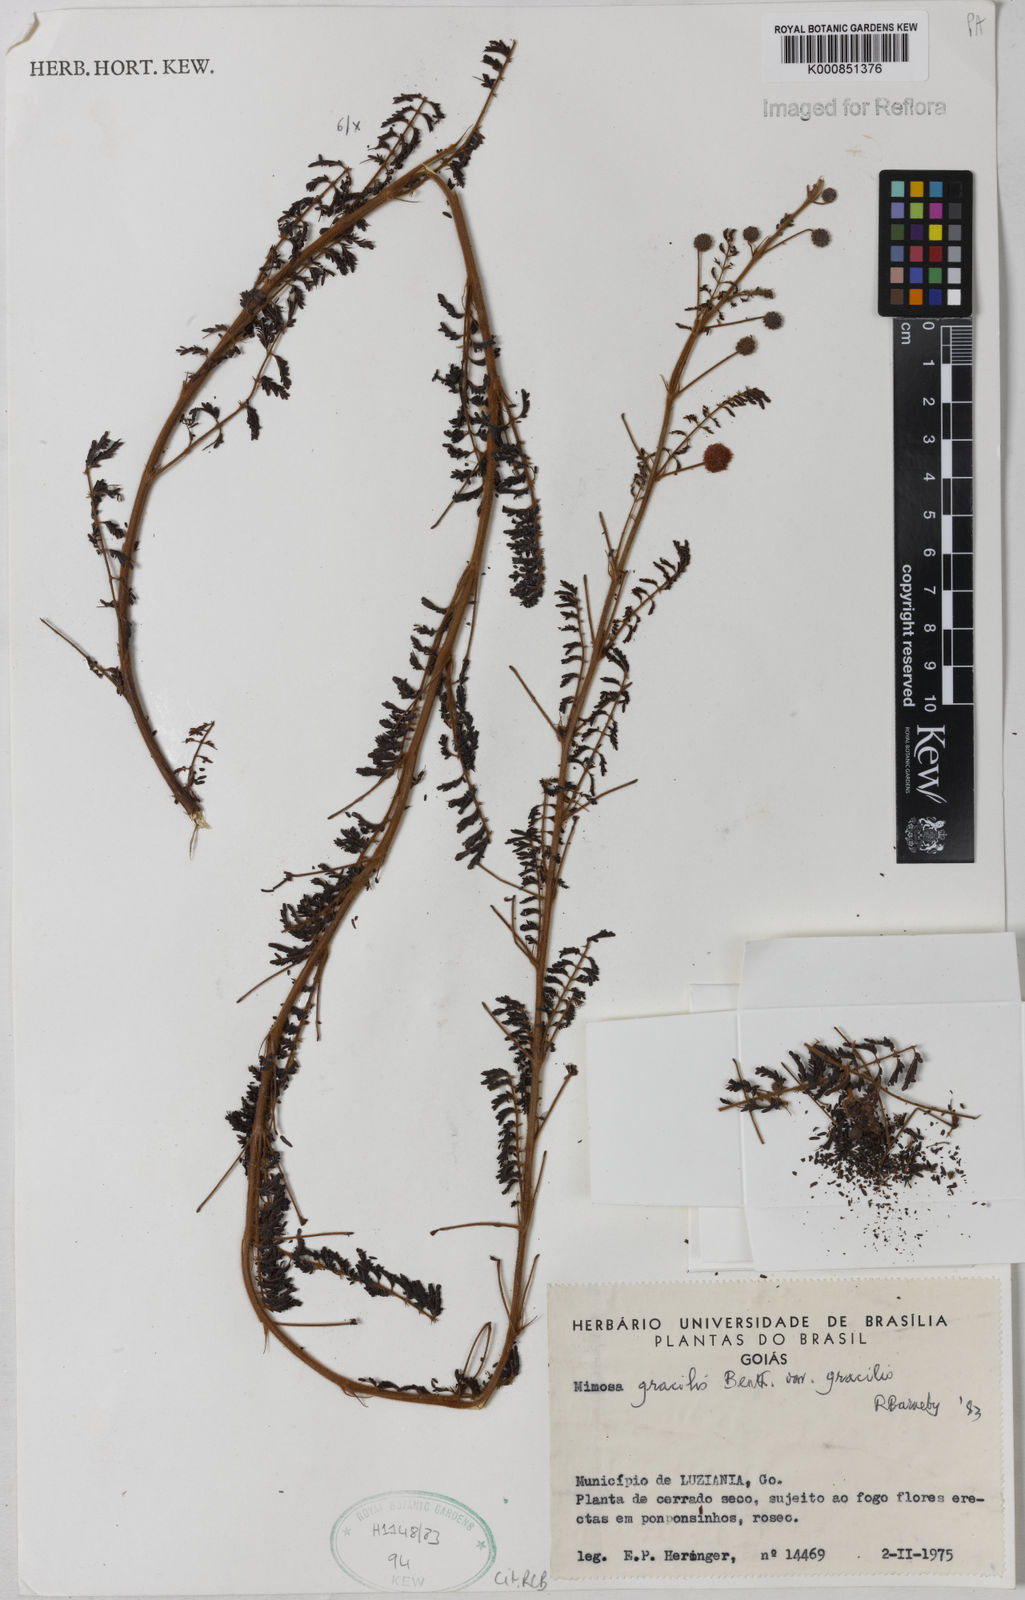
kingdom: Plantae
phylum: Tracheophyta
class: Magnoliopsida
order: Fabales
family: Fabaceae
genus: Mimosa
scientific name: Mimosa gracilis
